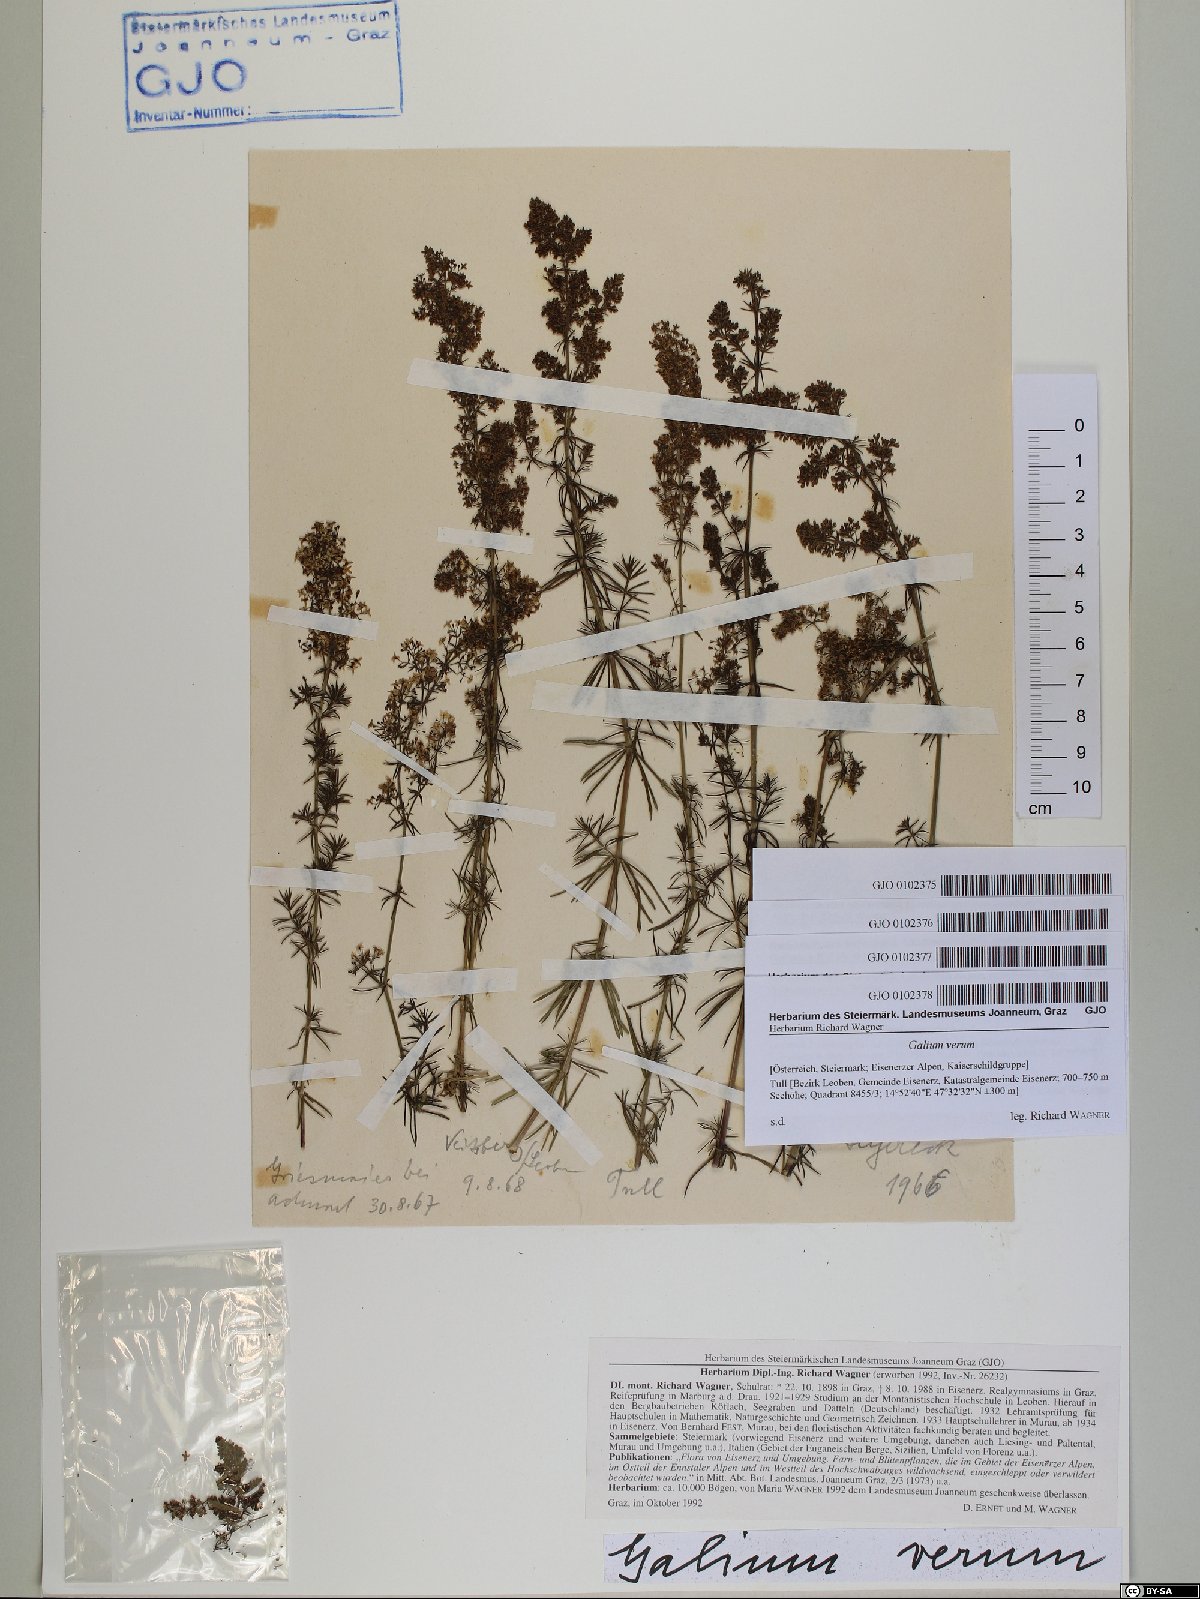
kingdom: Plantae
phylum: Tracheophyta
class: Magnoliopsida
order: Gentianales
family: Rubiaceae
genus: Galium
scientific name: Galium verum
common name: Lady's bedstraw
